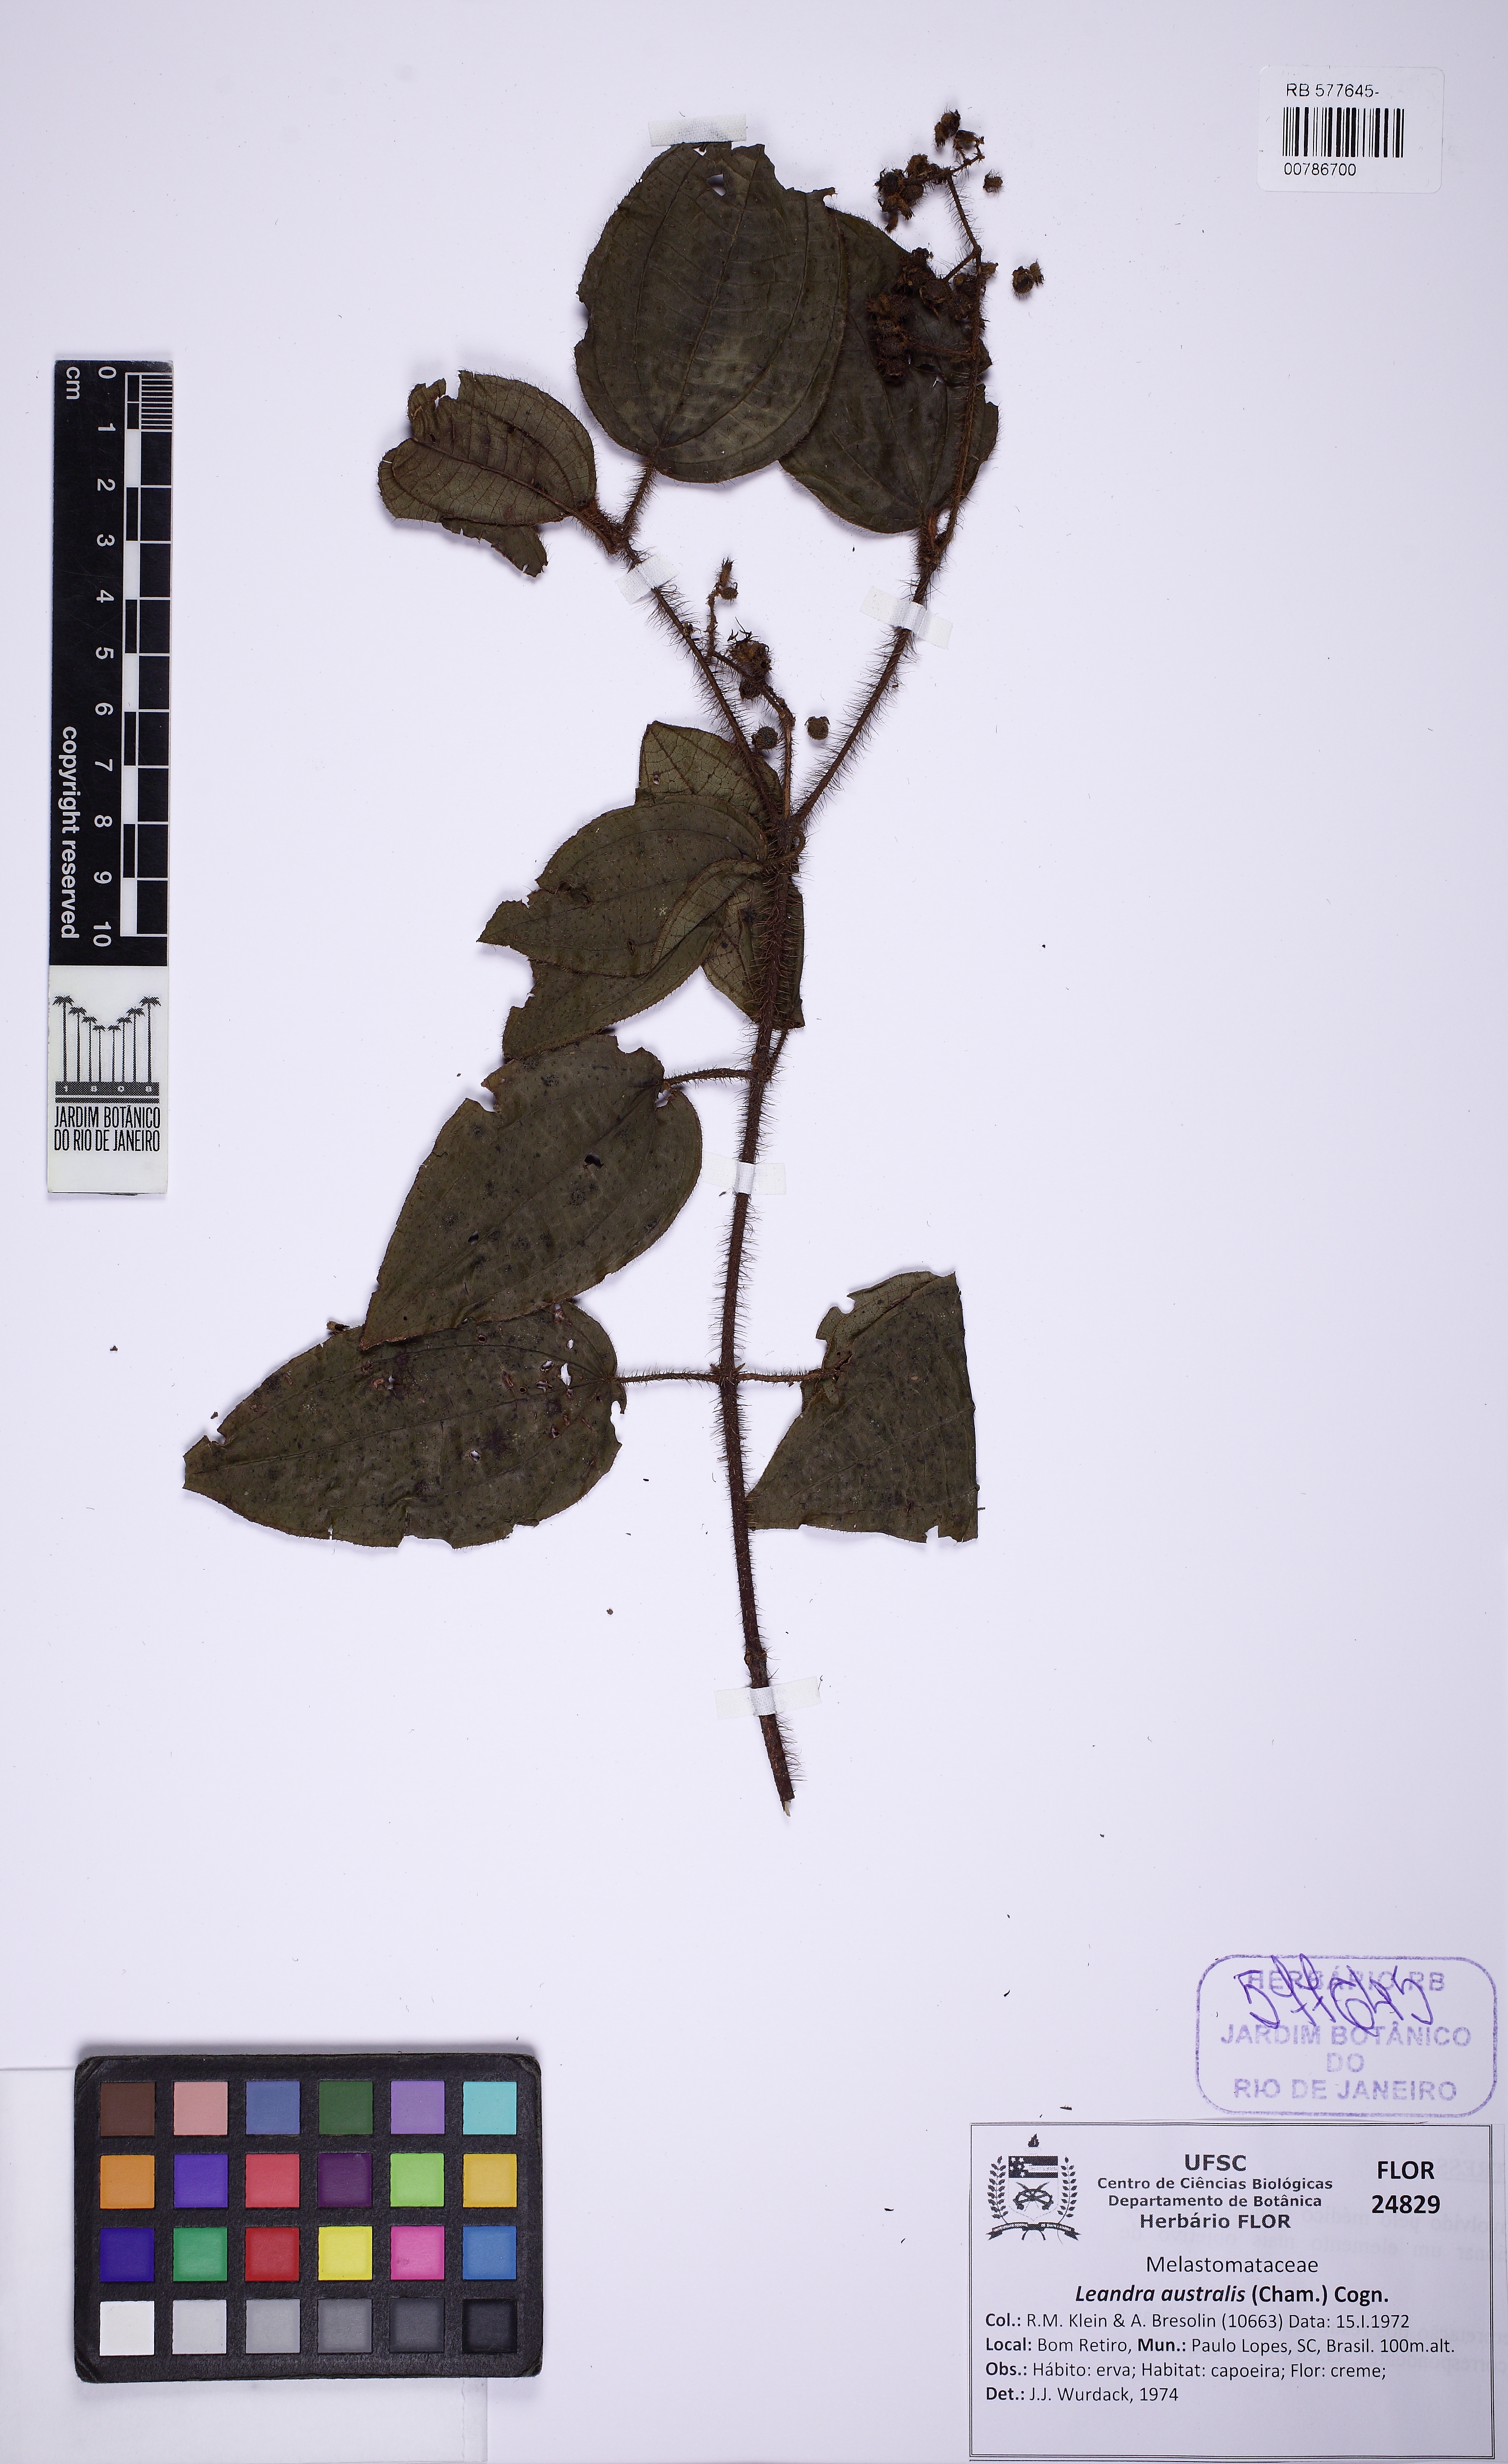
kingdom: Plantae
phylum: Tracheophyta
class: Magnoliopsida
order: Myrtales
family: Melastomataceae
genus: Miconia
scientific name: Miconia australis
